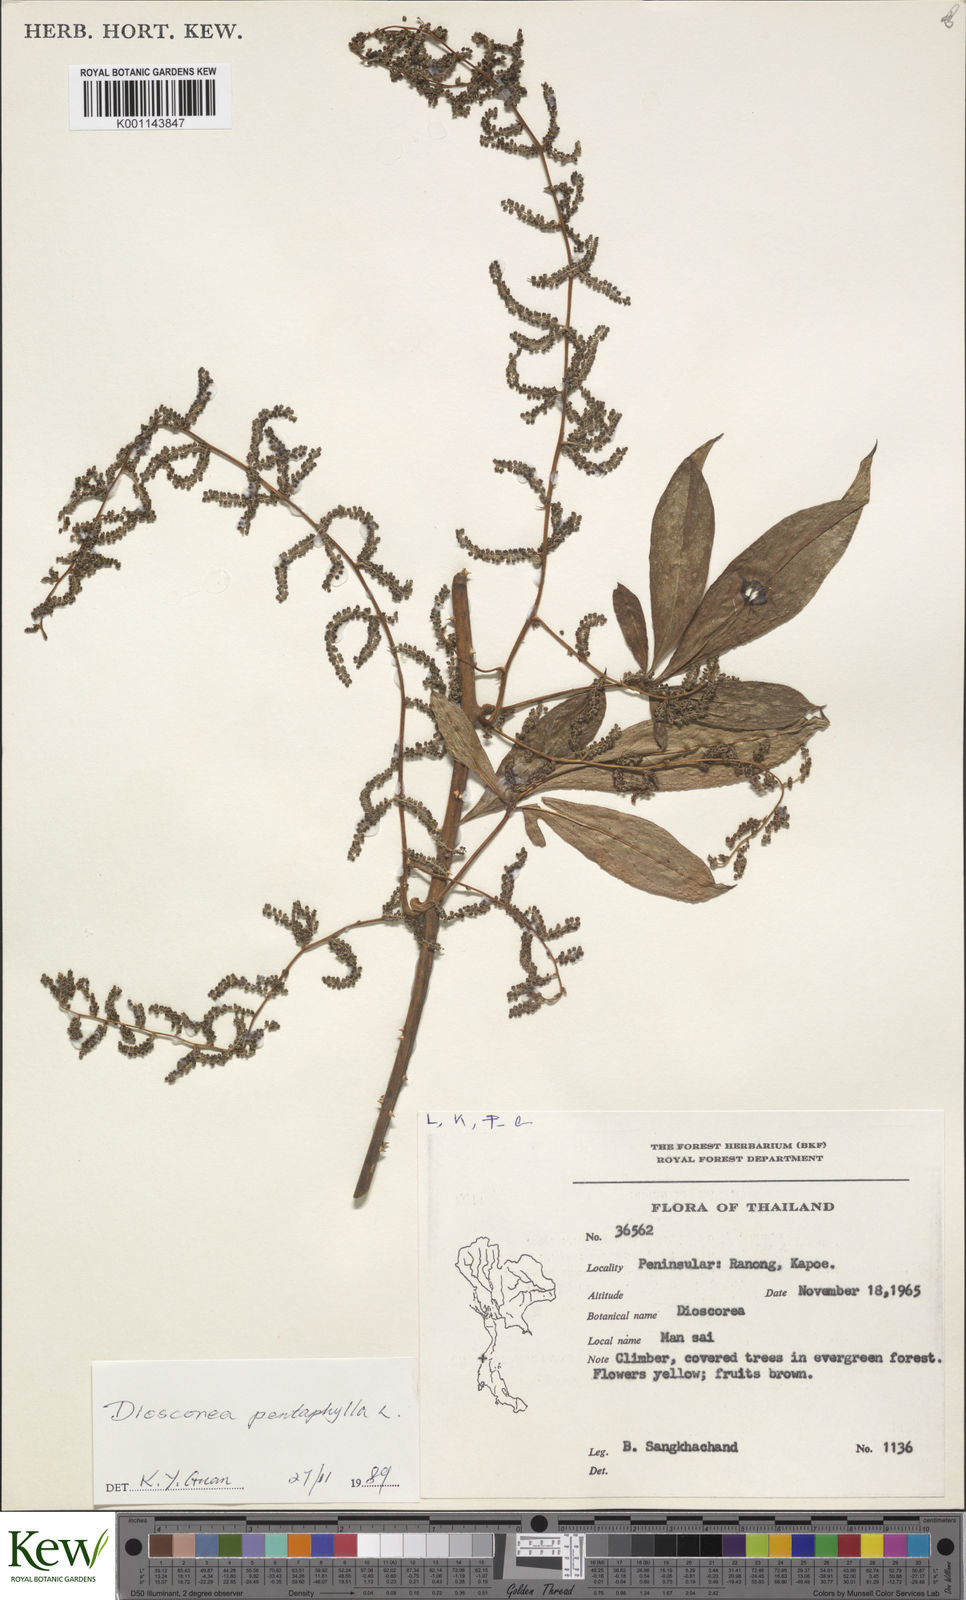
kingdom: Plantae
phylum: Tracheophyta
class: Liliopsida
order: Dioscoreales
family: Dioscoreaceae
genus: Dioscorea
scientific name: Dioscorea pentaphylla
